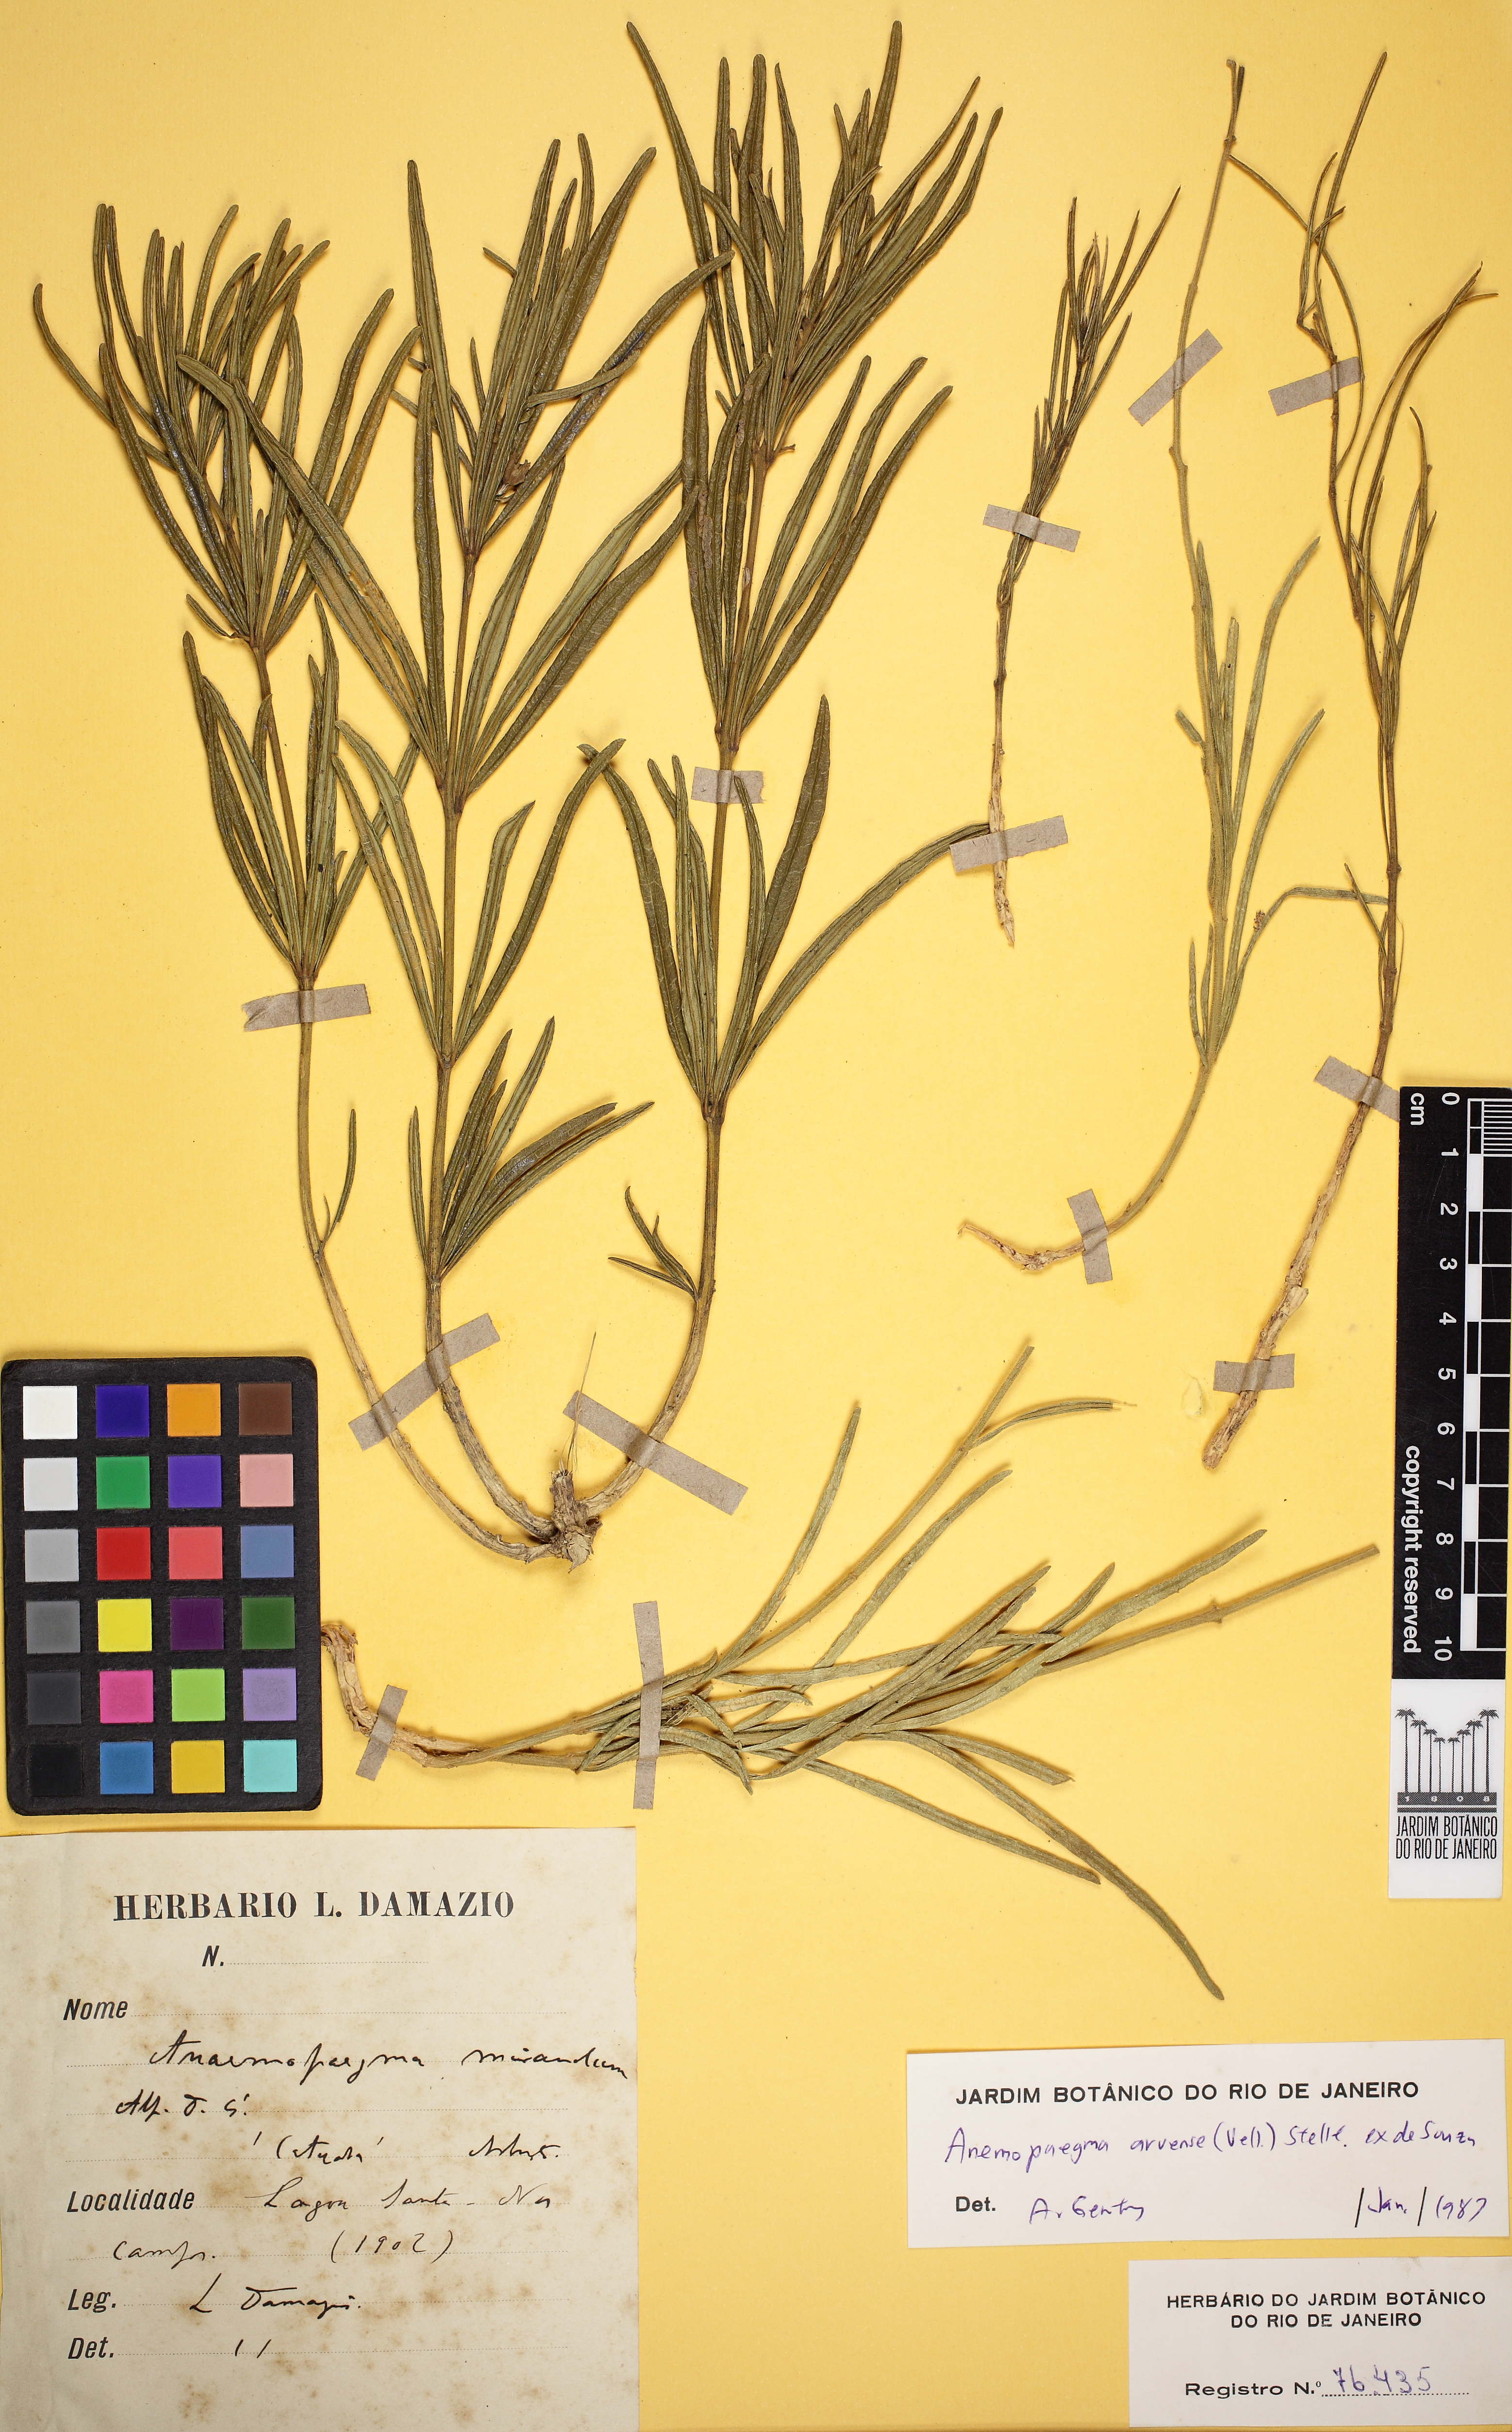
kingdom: Plantae
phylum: Tracheophyta
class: Magnoliopsida
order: Lamiales
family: Bignoniaceae
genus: Anemopaegma
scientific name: Anemopaegma arvense
